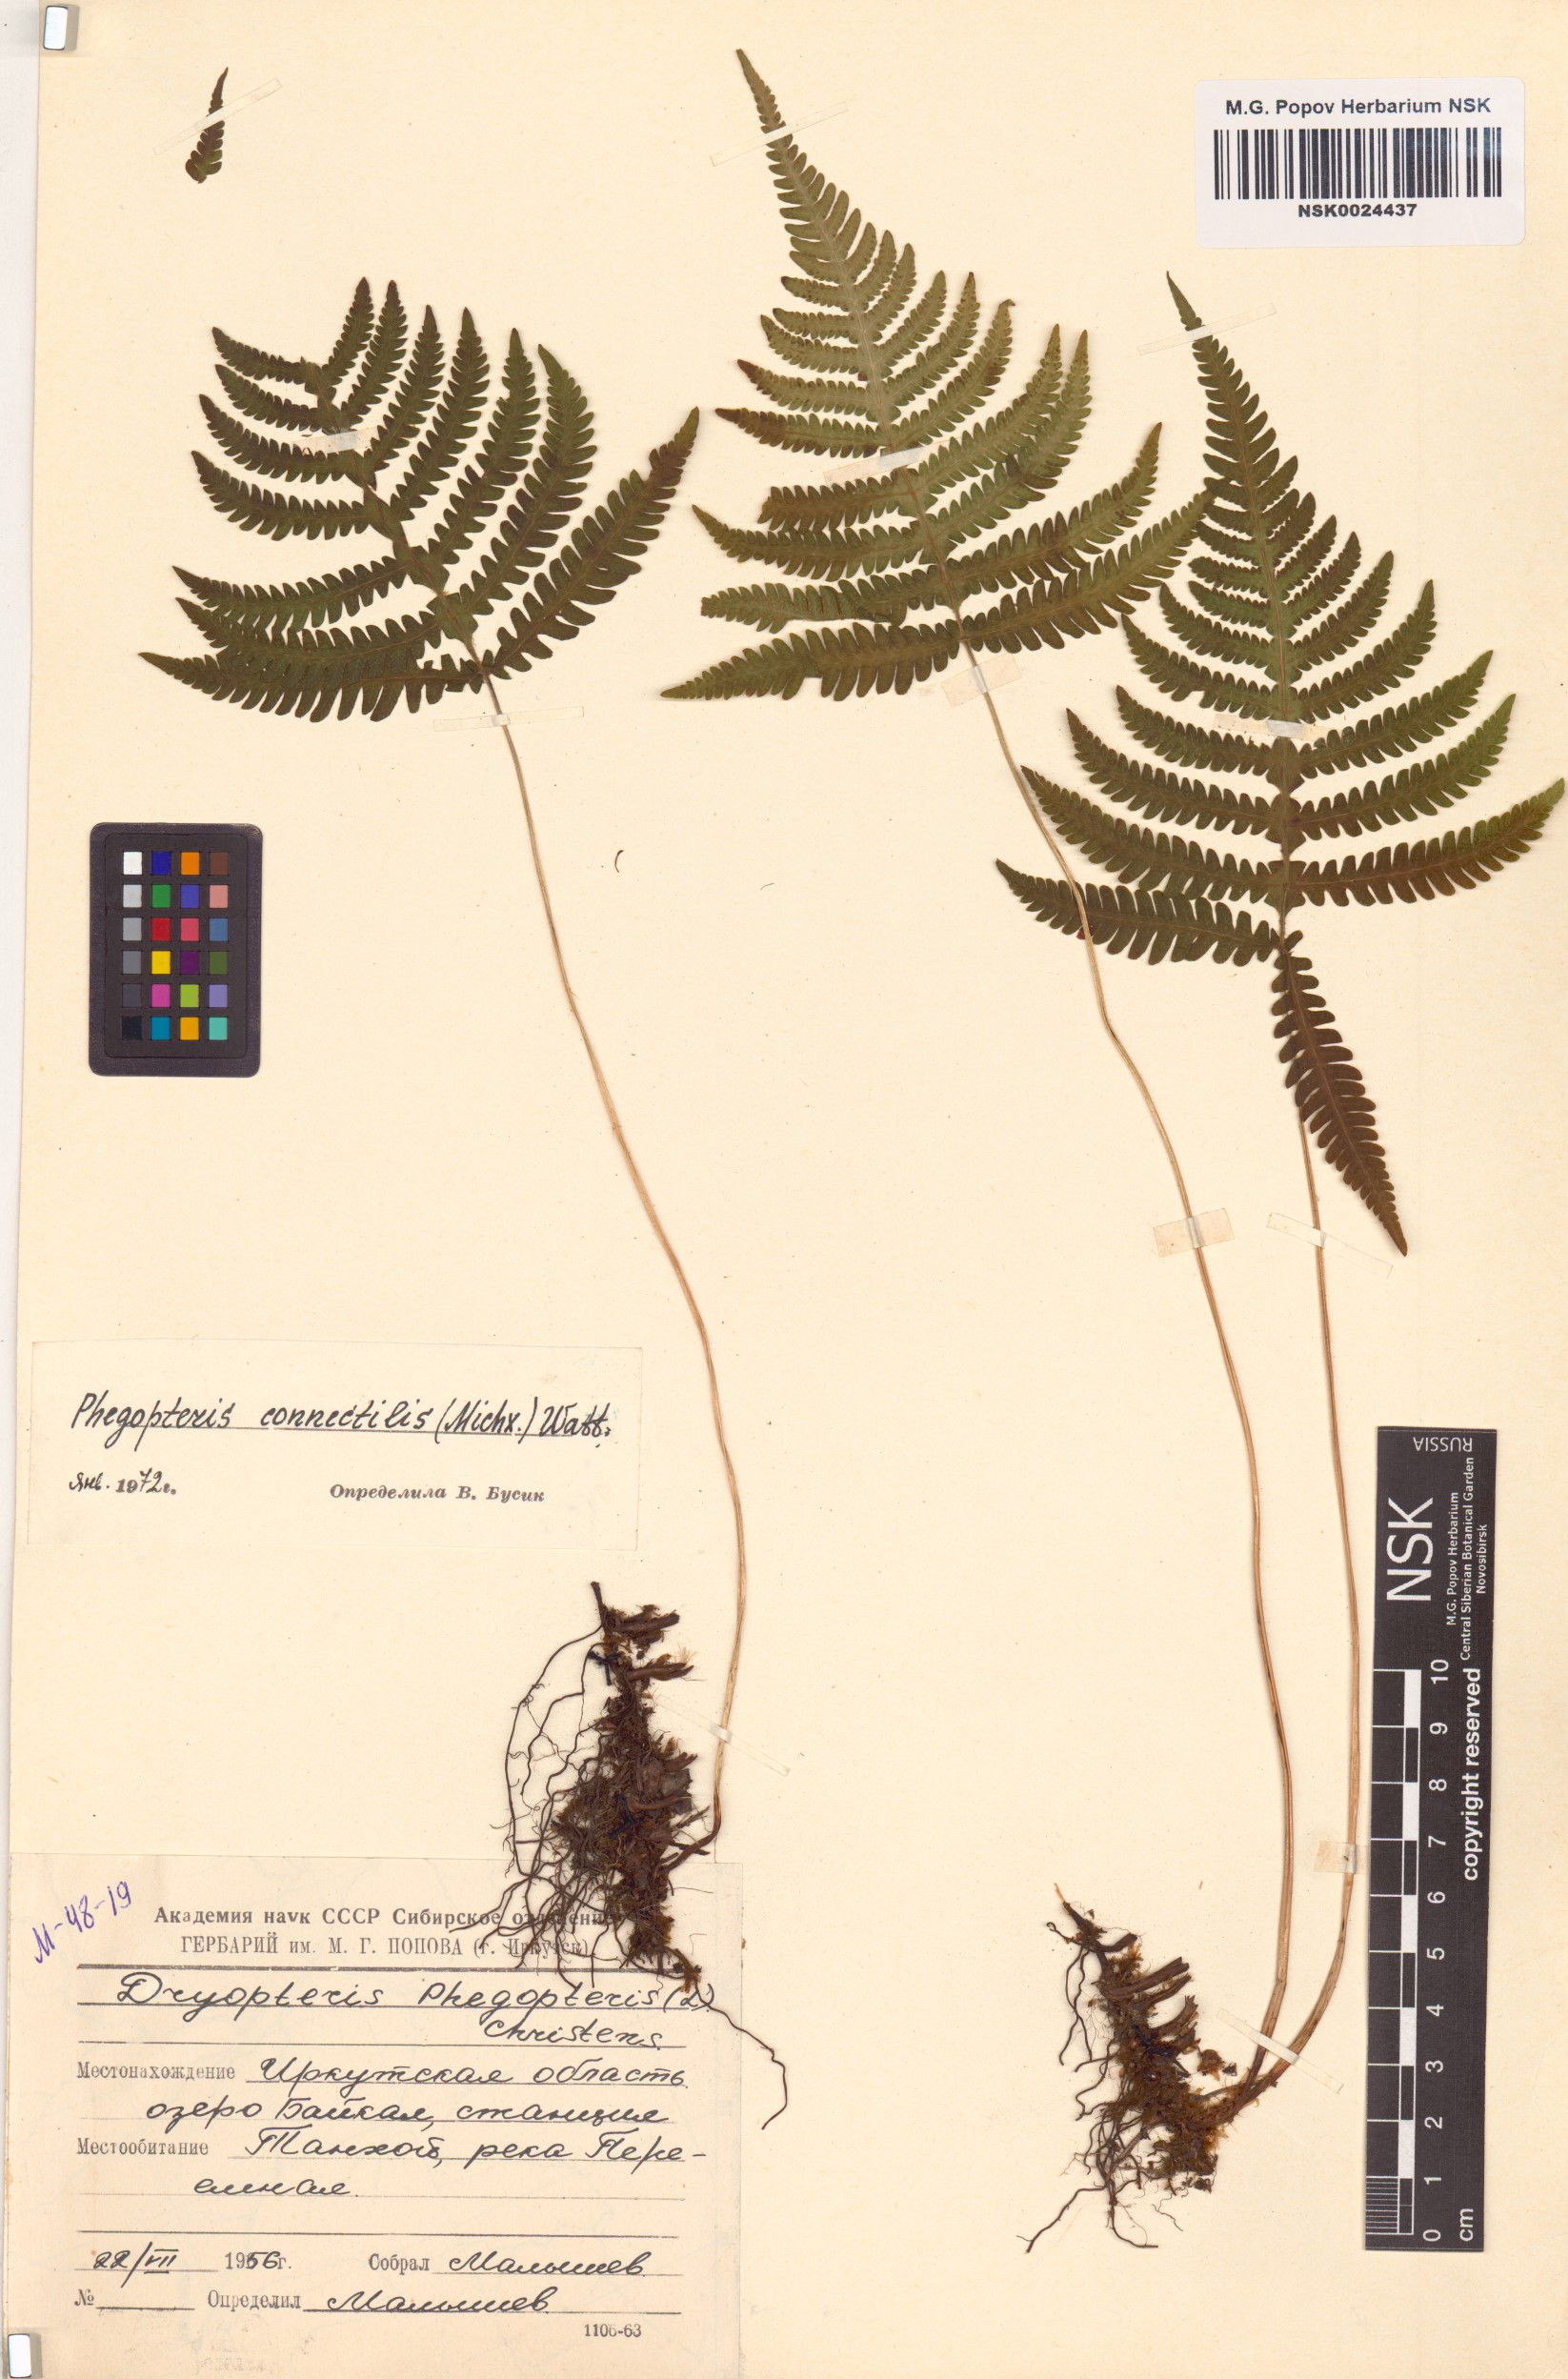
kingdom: Plantae
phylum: Tracheophyta
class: Polypodiopsida
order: Polypodiales
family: Thelypteridaceae
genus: Phegopteris
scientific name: Phegopteris connectilis
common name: Beech fern
